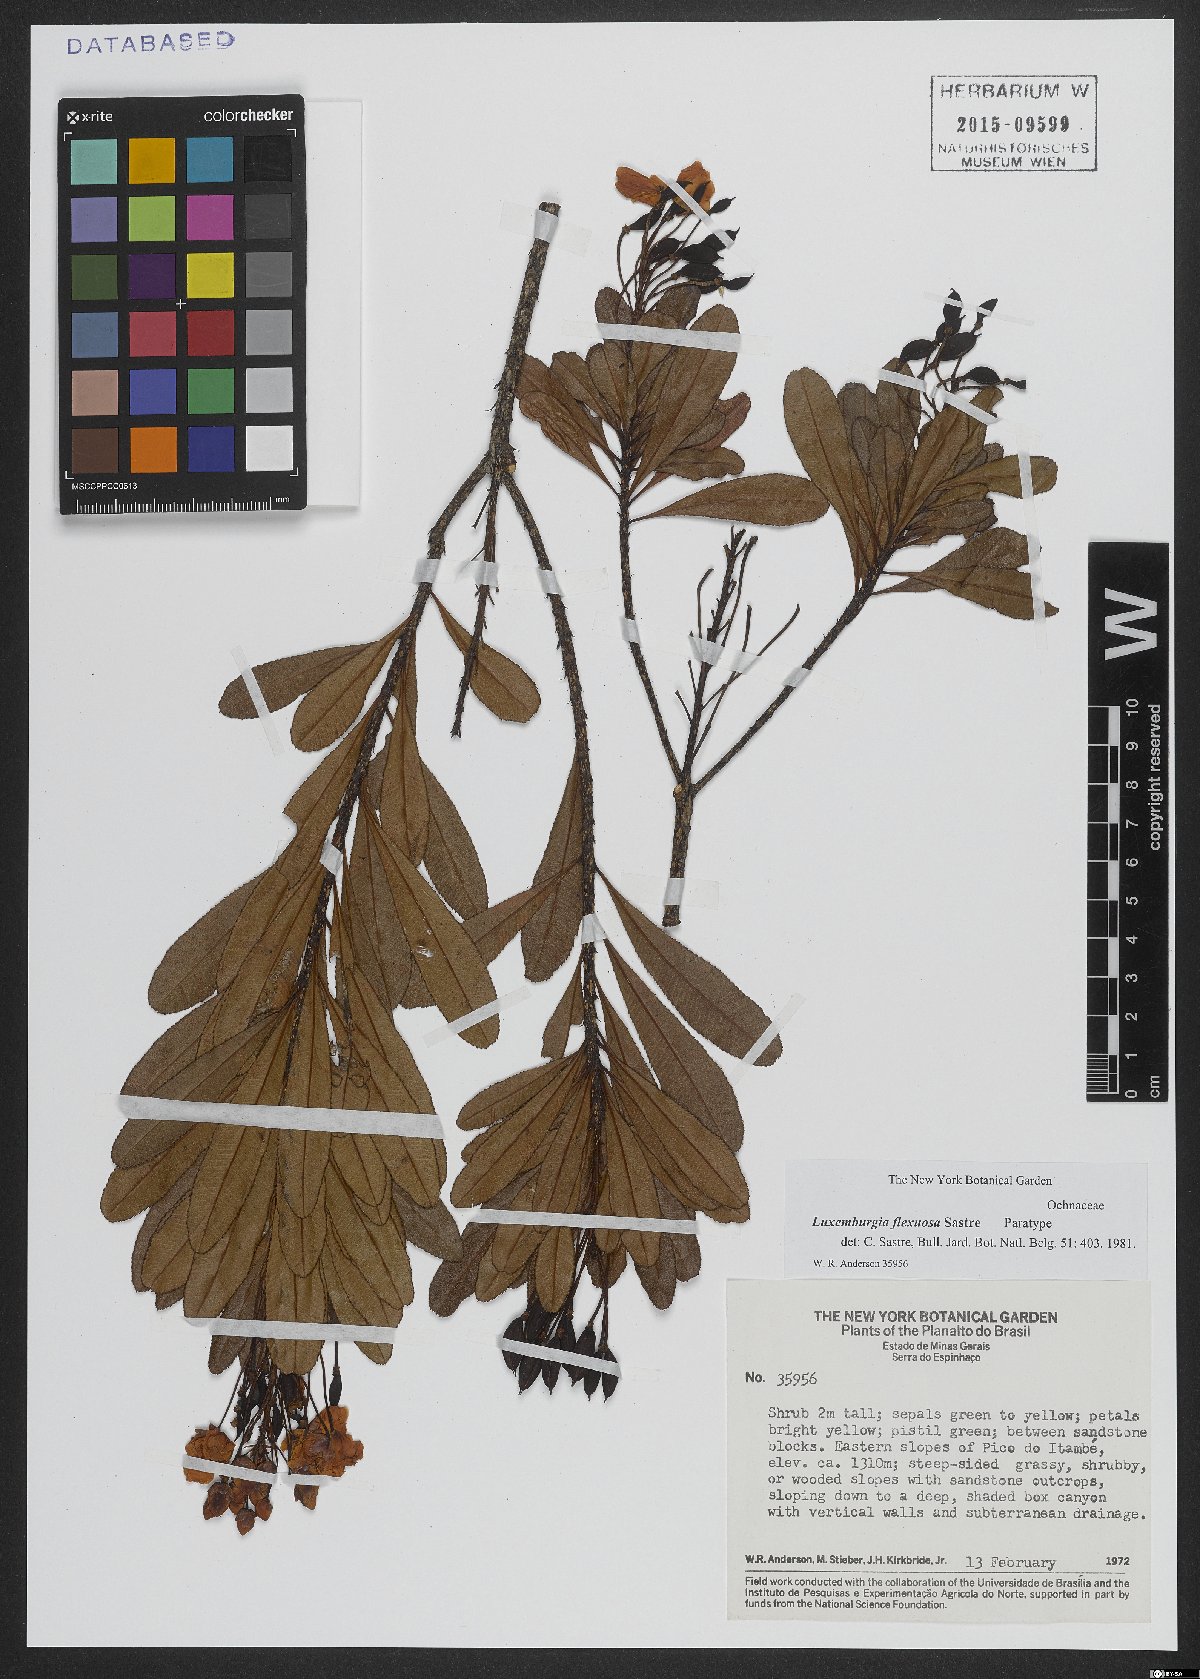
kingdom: Plantae
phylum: Tracheophyta
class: Magnoliopsida
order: Malpighiales
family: Ochnaceae
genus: Luxemburgia
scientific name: Luxemburgia flexuosa
